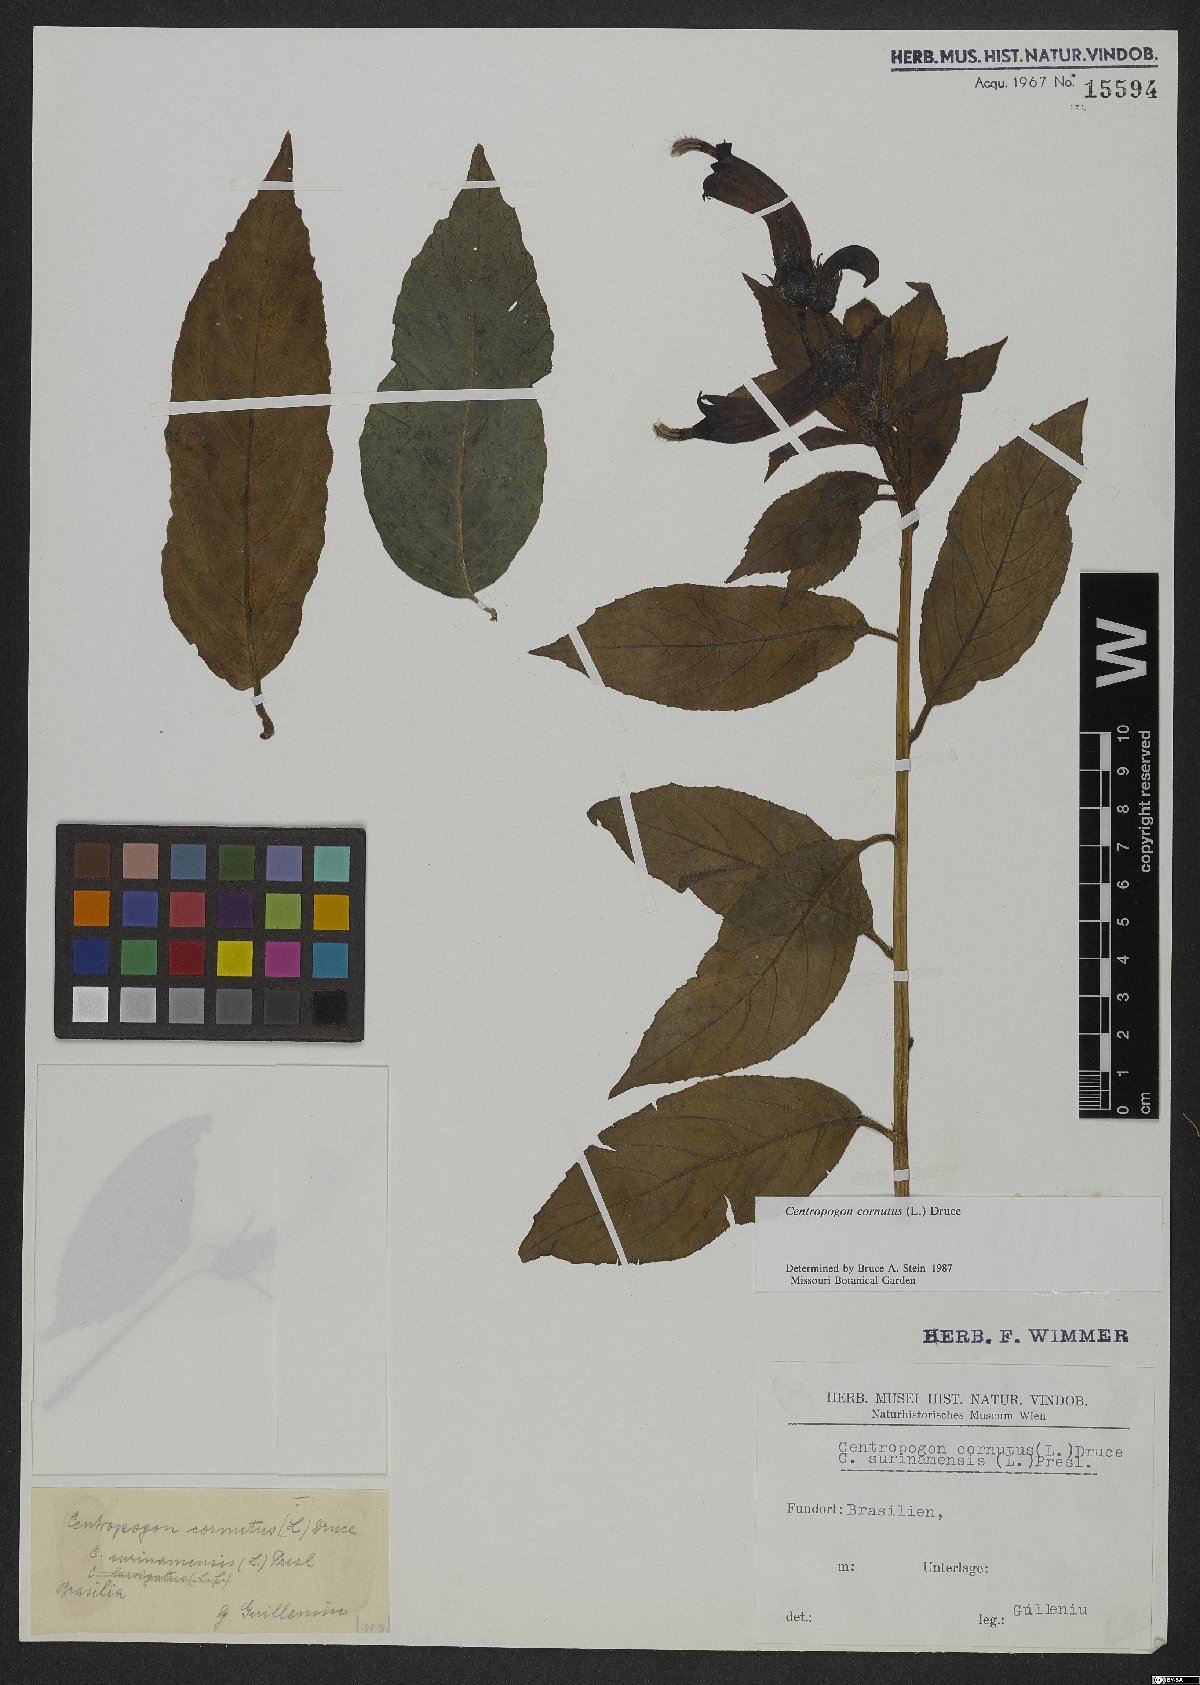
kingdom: Plantae
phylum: Tracheophyta
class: Magnoliopsida
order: Asterales
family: Campanulaceae
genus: Centropogon
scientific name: Centropogon cornutus
